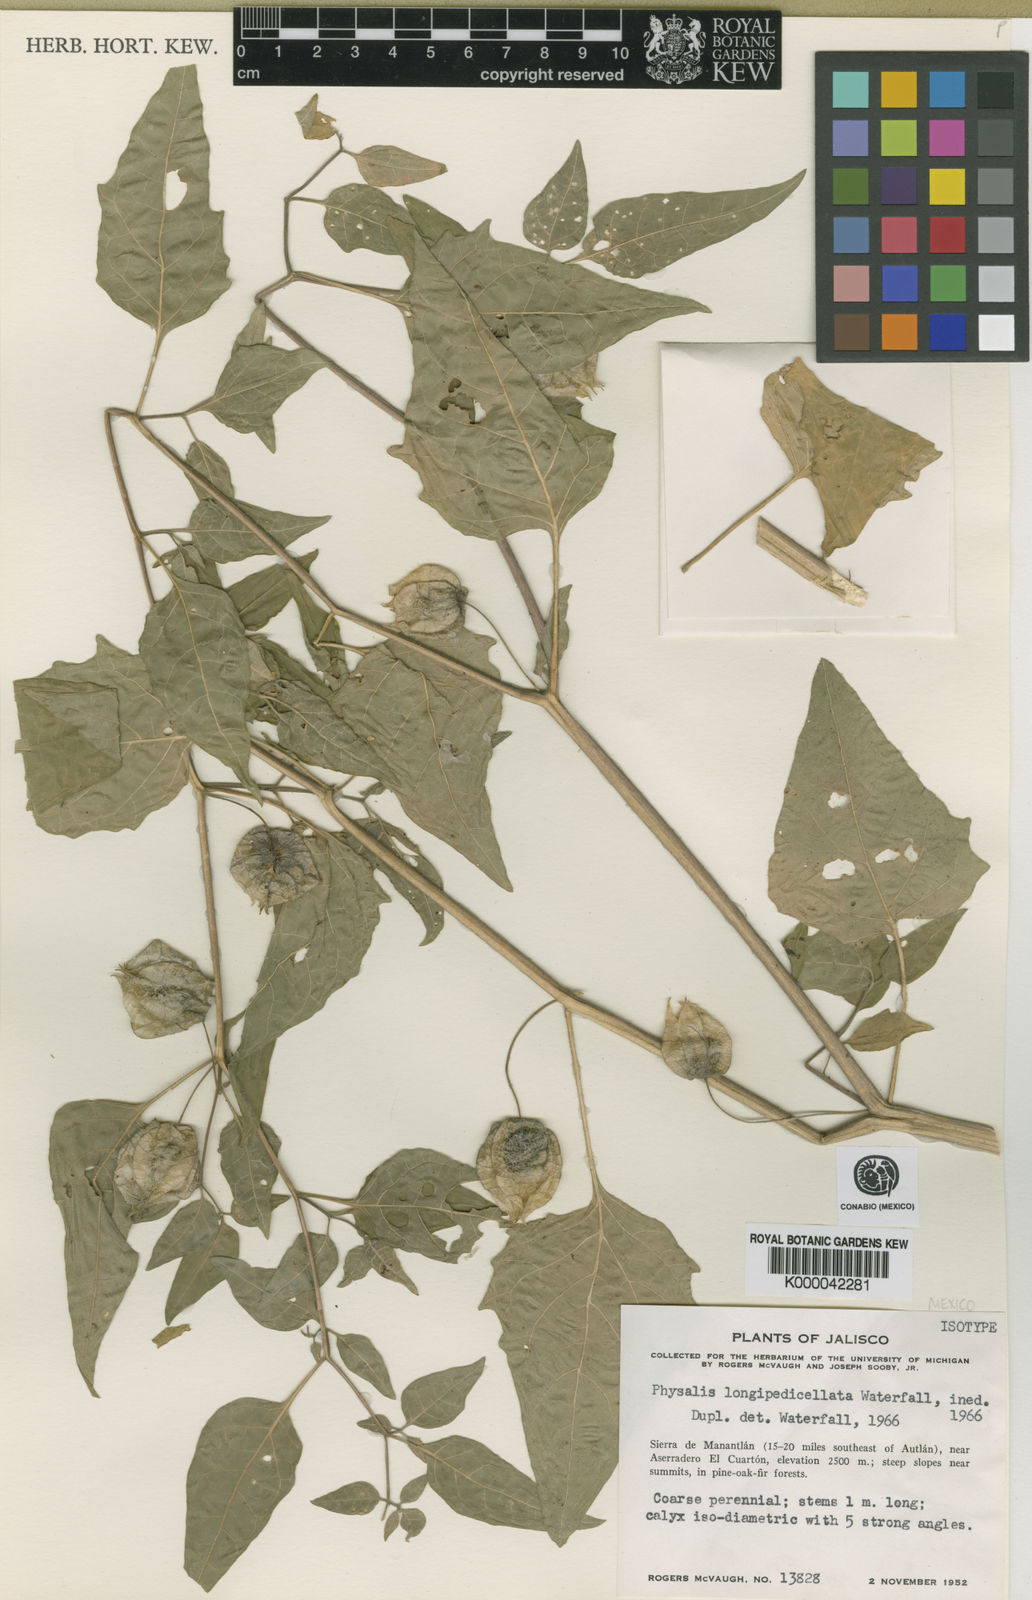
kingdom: Plantae
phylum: Tracheophyta
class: Magnoliopsida
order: Solanales
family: Solanaceae
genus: Physalis
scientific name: Physalis longipedicellata
